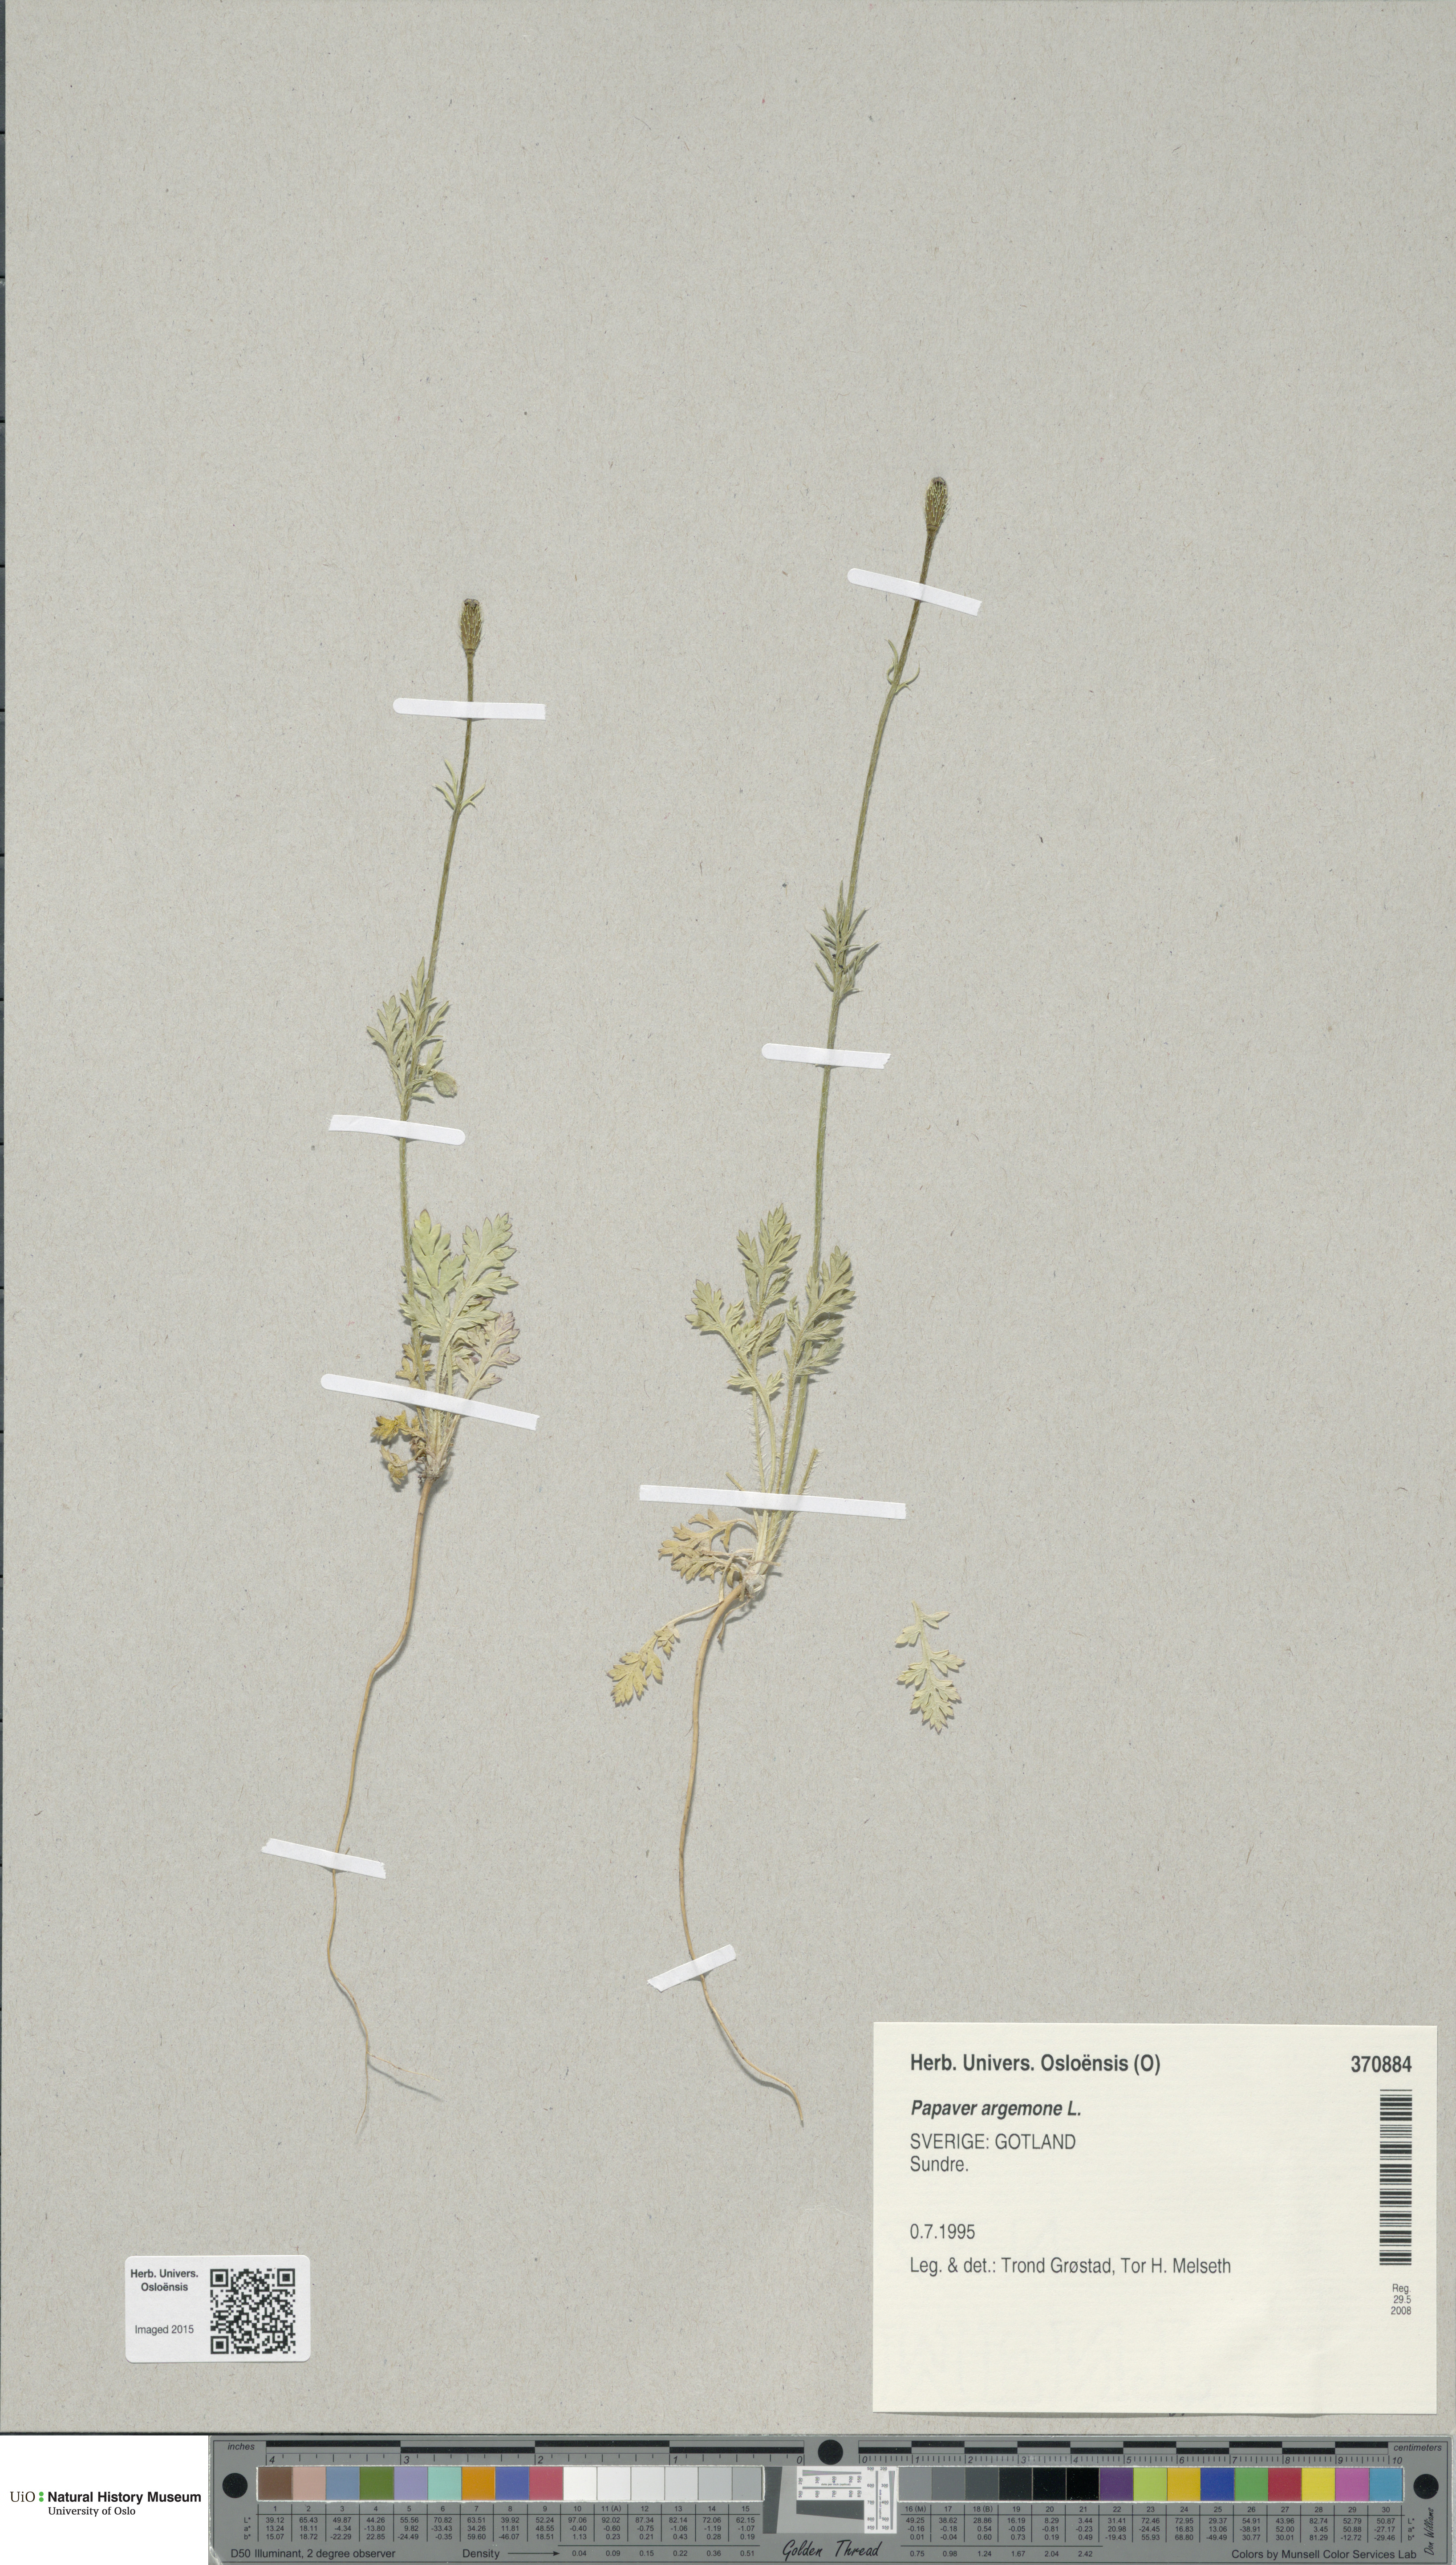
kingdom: Plantae
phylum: Tracheophyta
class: Magnoliopsida
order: Ranunculales
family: Papaveraceae
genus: Roemeria
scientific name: Roemeria argemone
